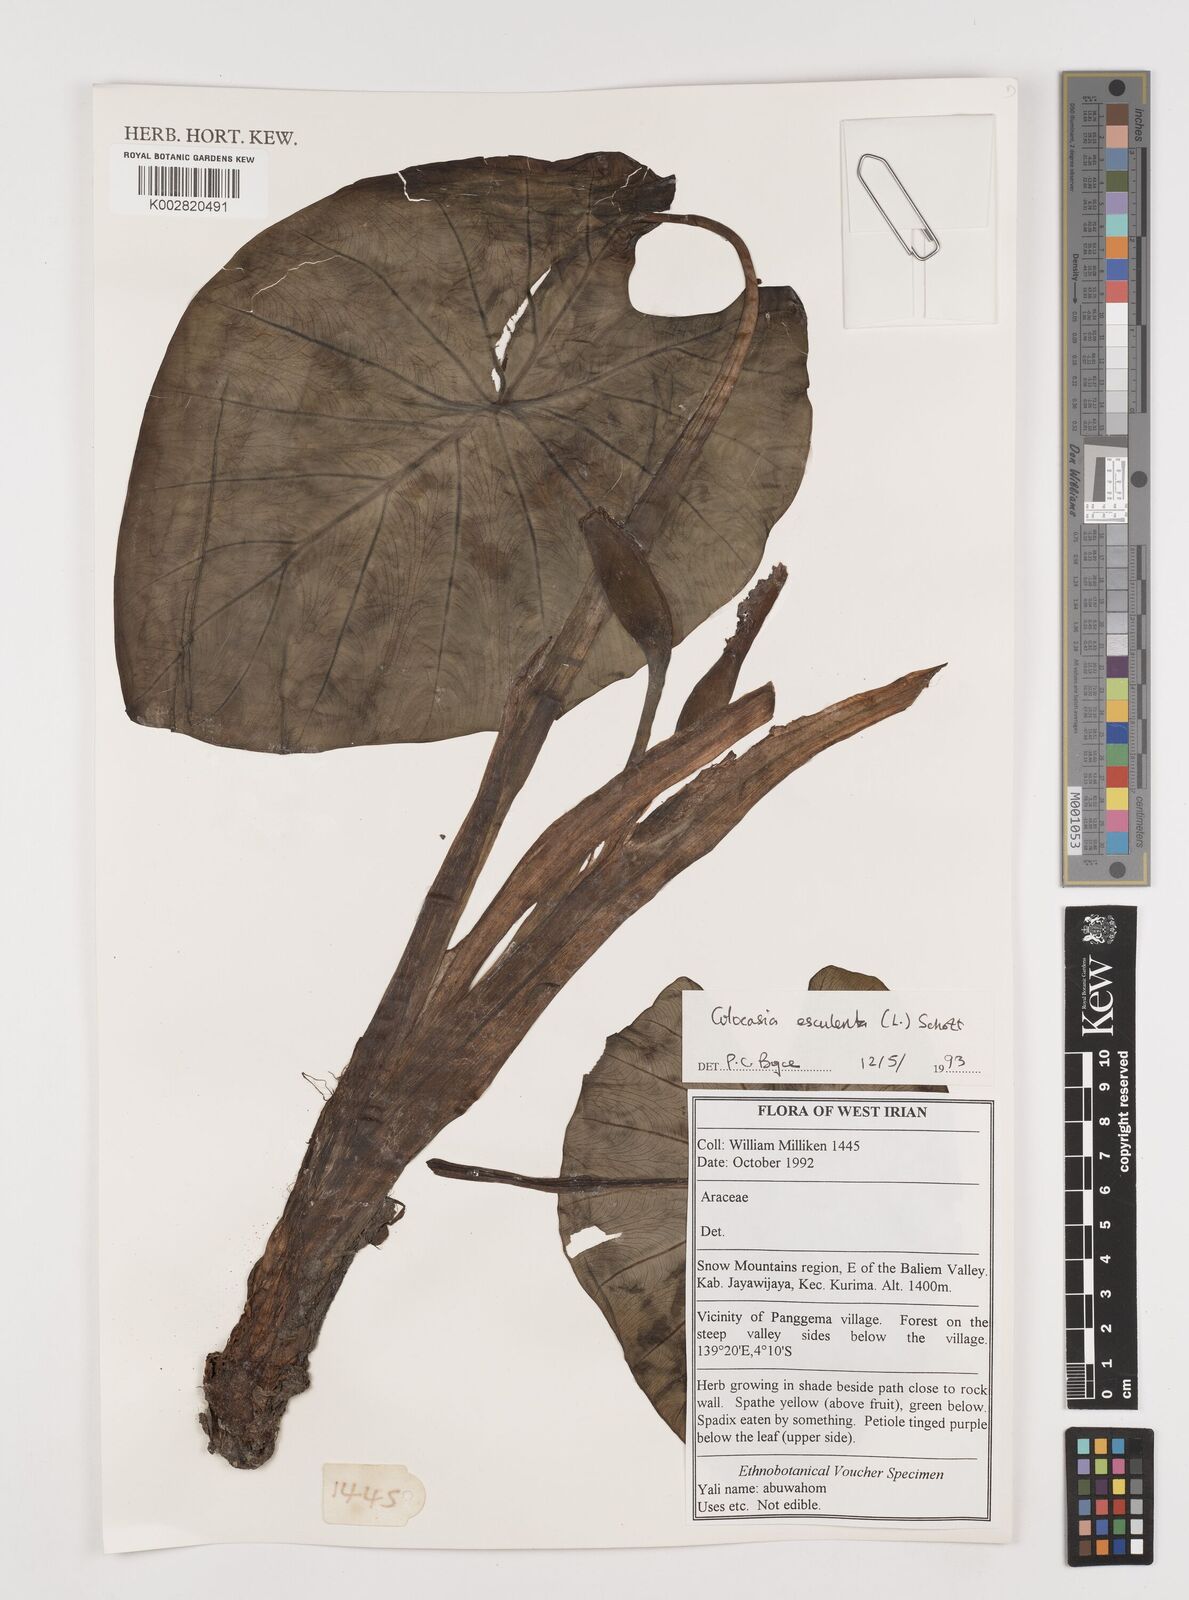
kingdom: Plantae
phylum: Tracheophyta
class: Liliopsida
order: Alismatales
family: Araceae
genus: Colocasia
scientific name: Colocasia esculenta
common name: Taro
